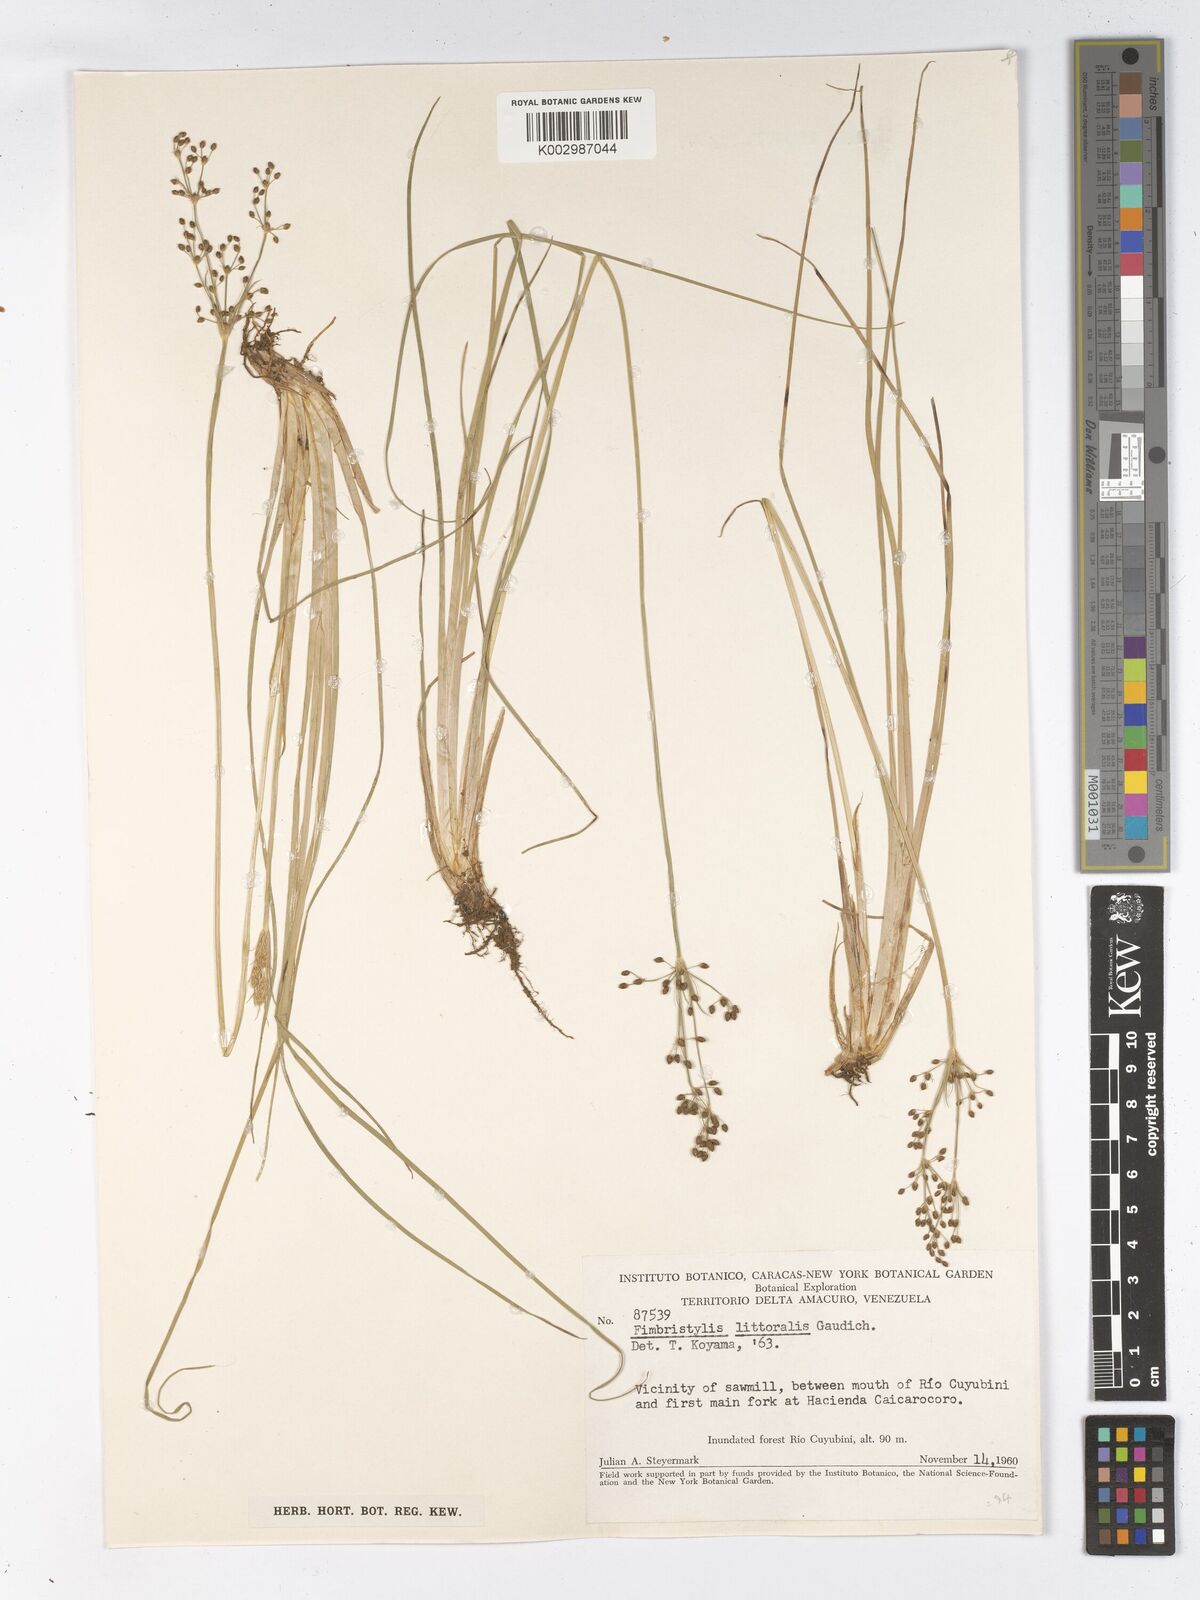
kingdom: Plantae
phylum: Tracheophyta
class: Liliopsida
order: Poales
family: Cyperaceae
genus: Fimbristylis
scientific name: Fimbristylis littoralis
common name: Fimbry
